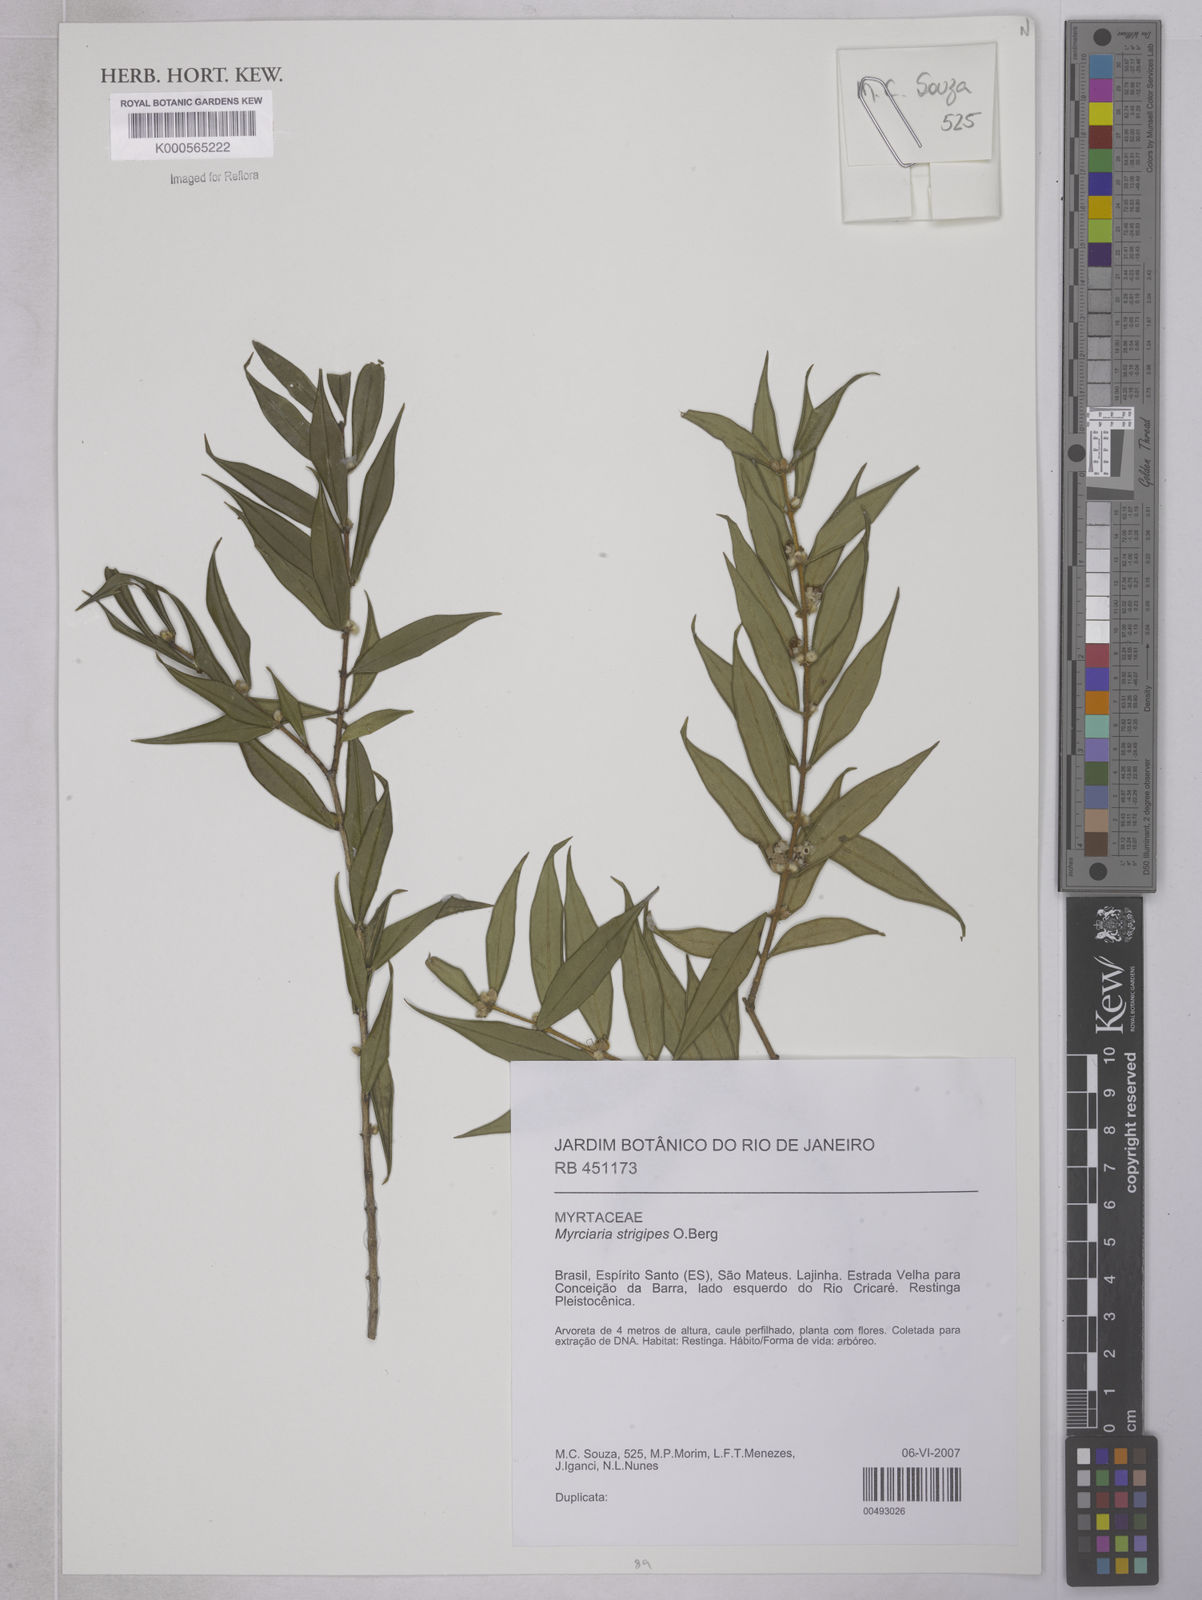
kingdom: Plantae
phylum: Tracheophyta
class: Magnoliopsida
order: Myrtales
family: Myrtaceae
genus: Neomitranthes
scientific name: Neomitranthes
